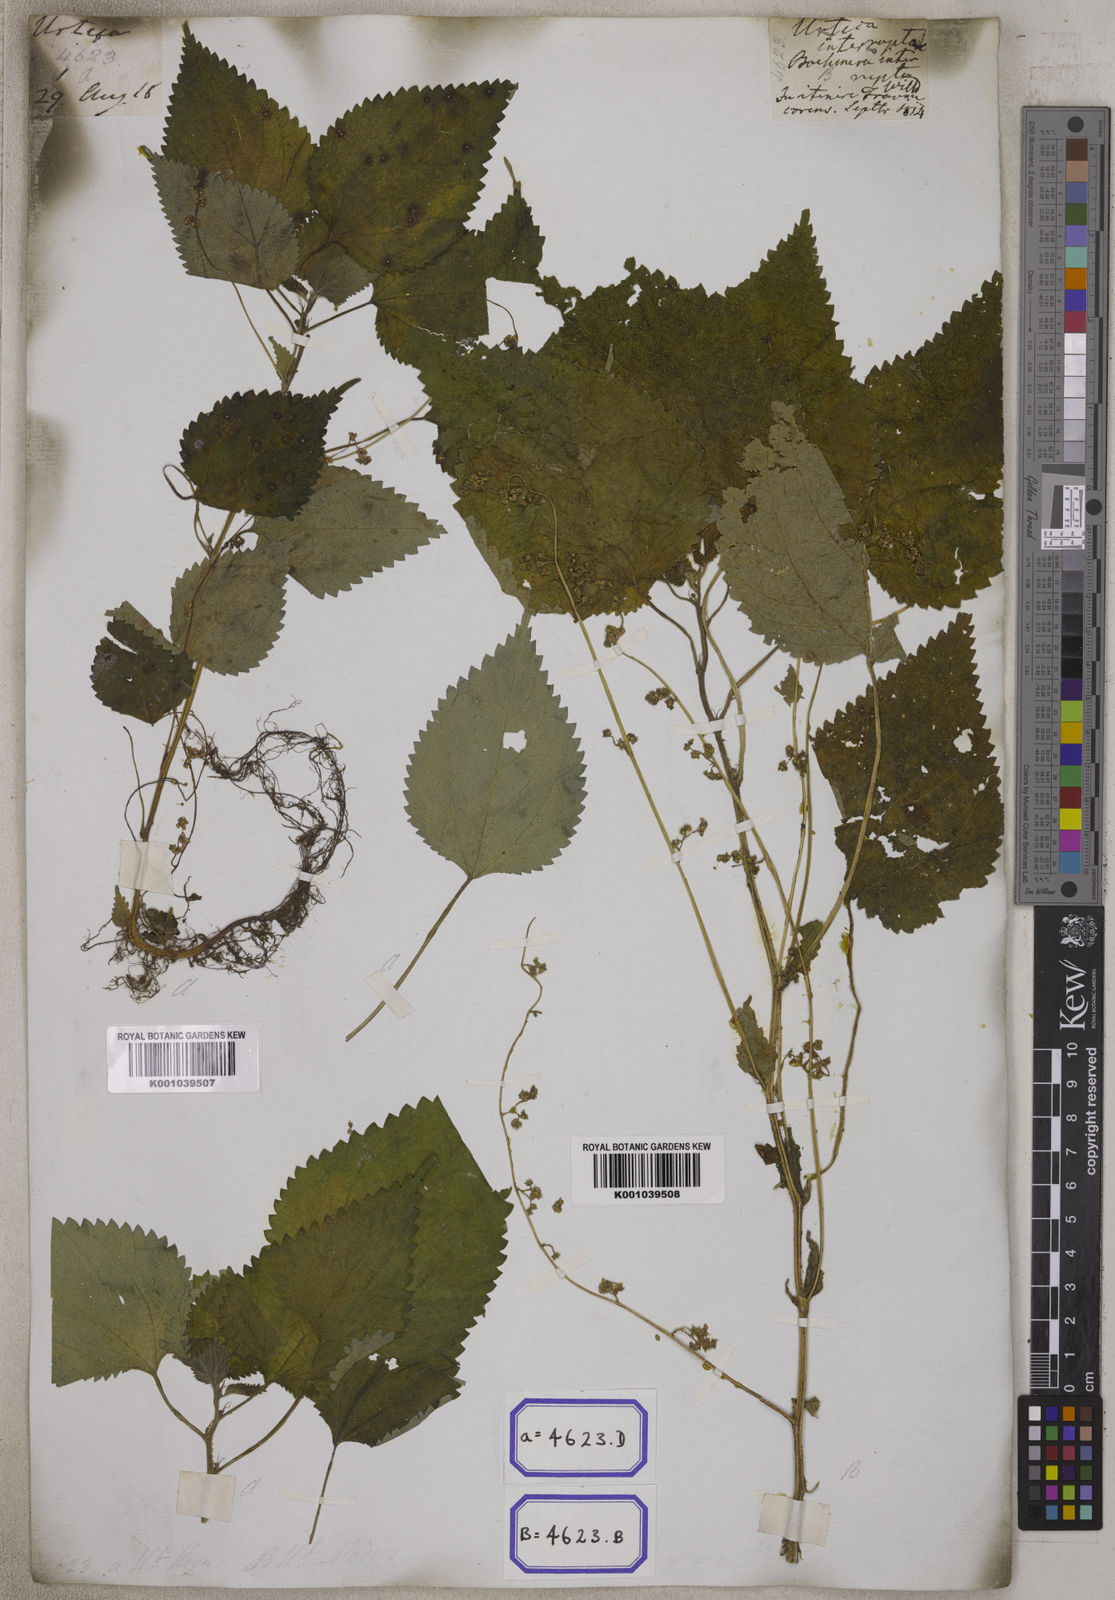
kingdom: Plantae
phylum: Tracheophyta
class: Magnoliopsida
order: Rosales
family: Urticaceae
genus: Laportea
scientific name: Laportea interrupta
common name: Hawaiian wood-nettle
